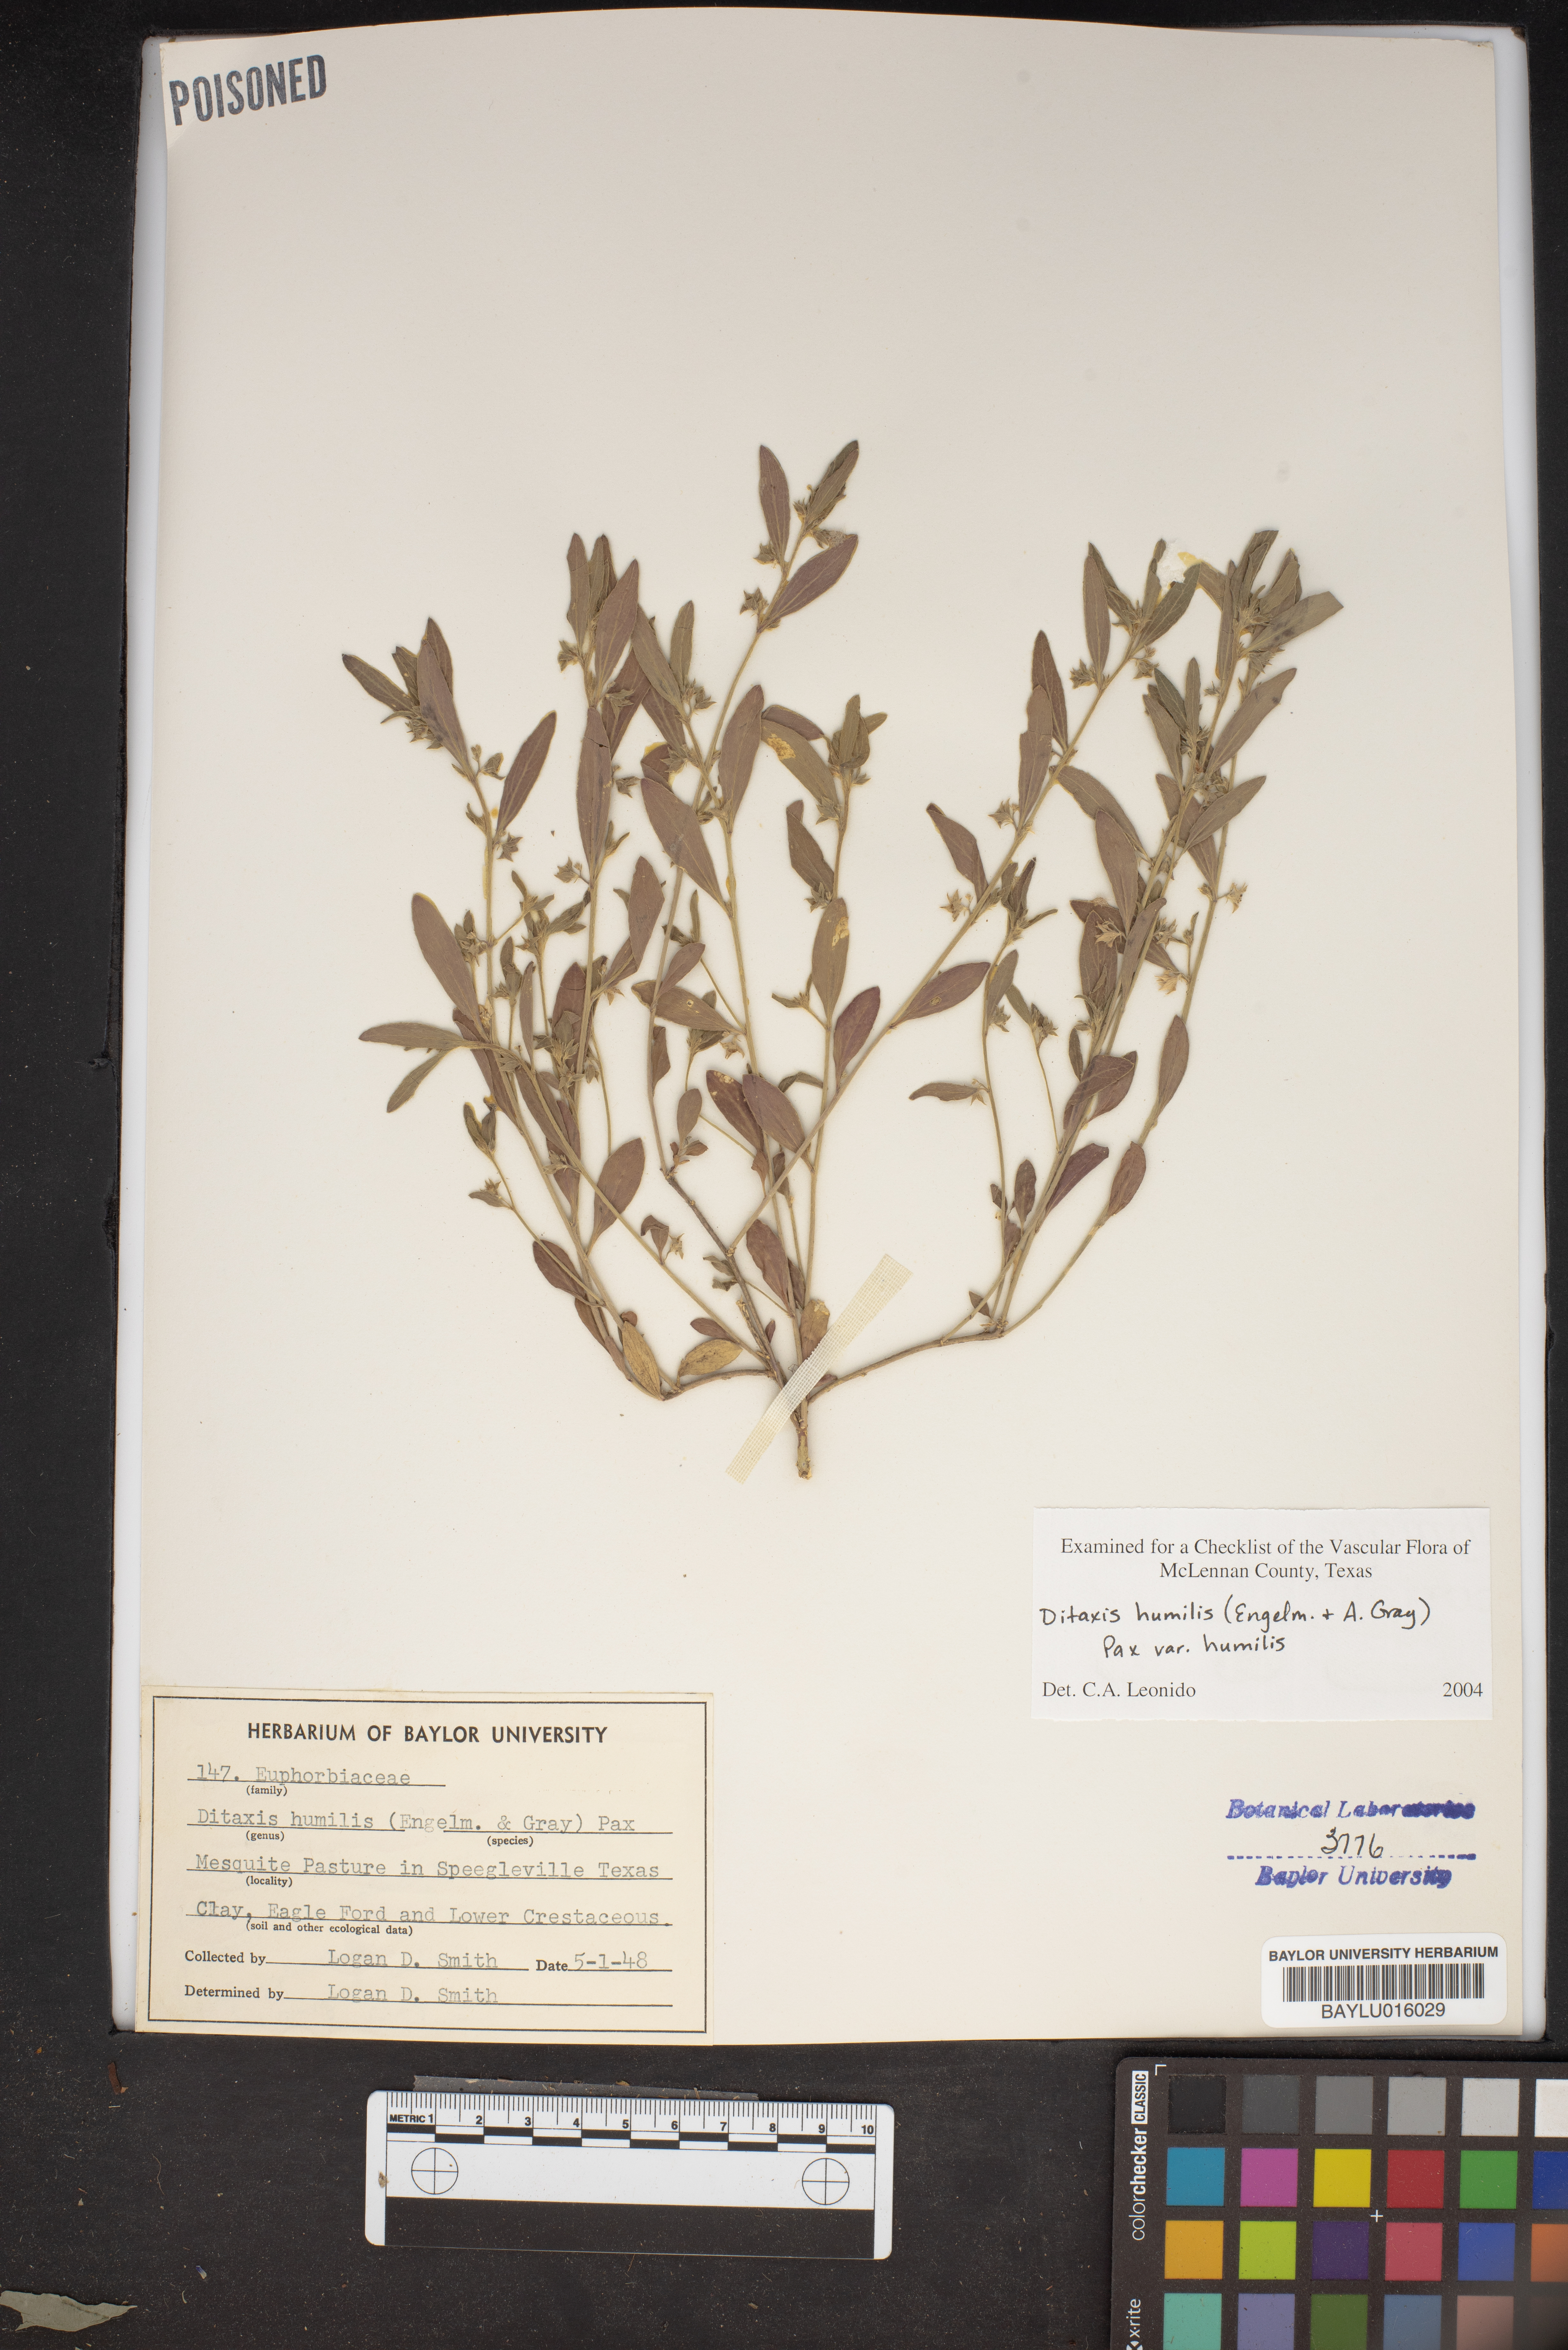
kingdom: Plantae
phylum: Tracheophyta
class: Magnoliopsida
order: Malpighiales
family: Euphorbiaceae
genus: Ditaxis
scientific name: Ditaxis humilis
